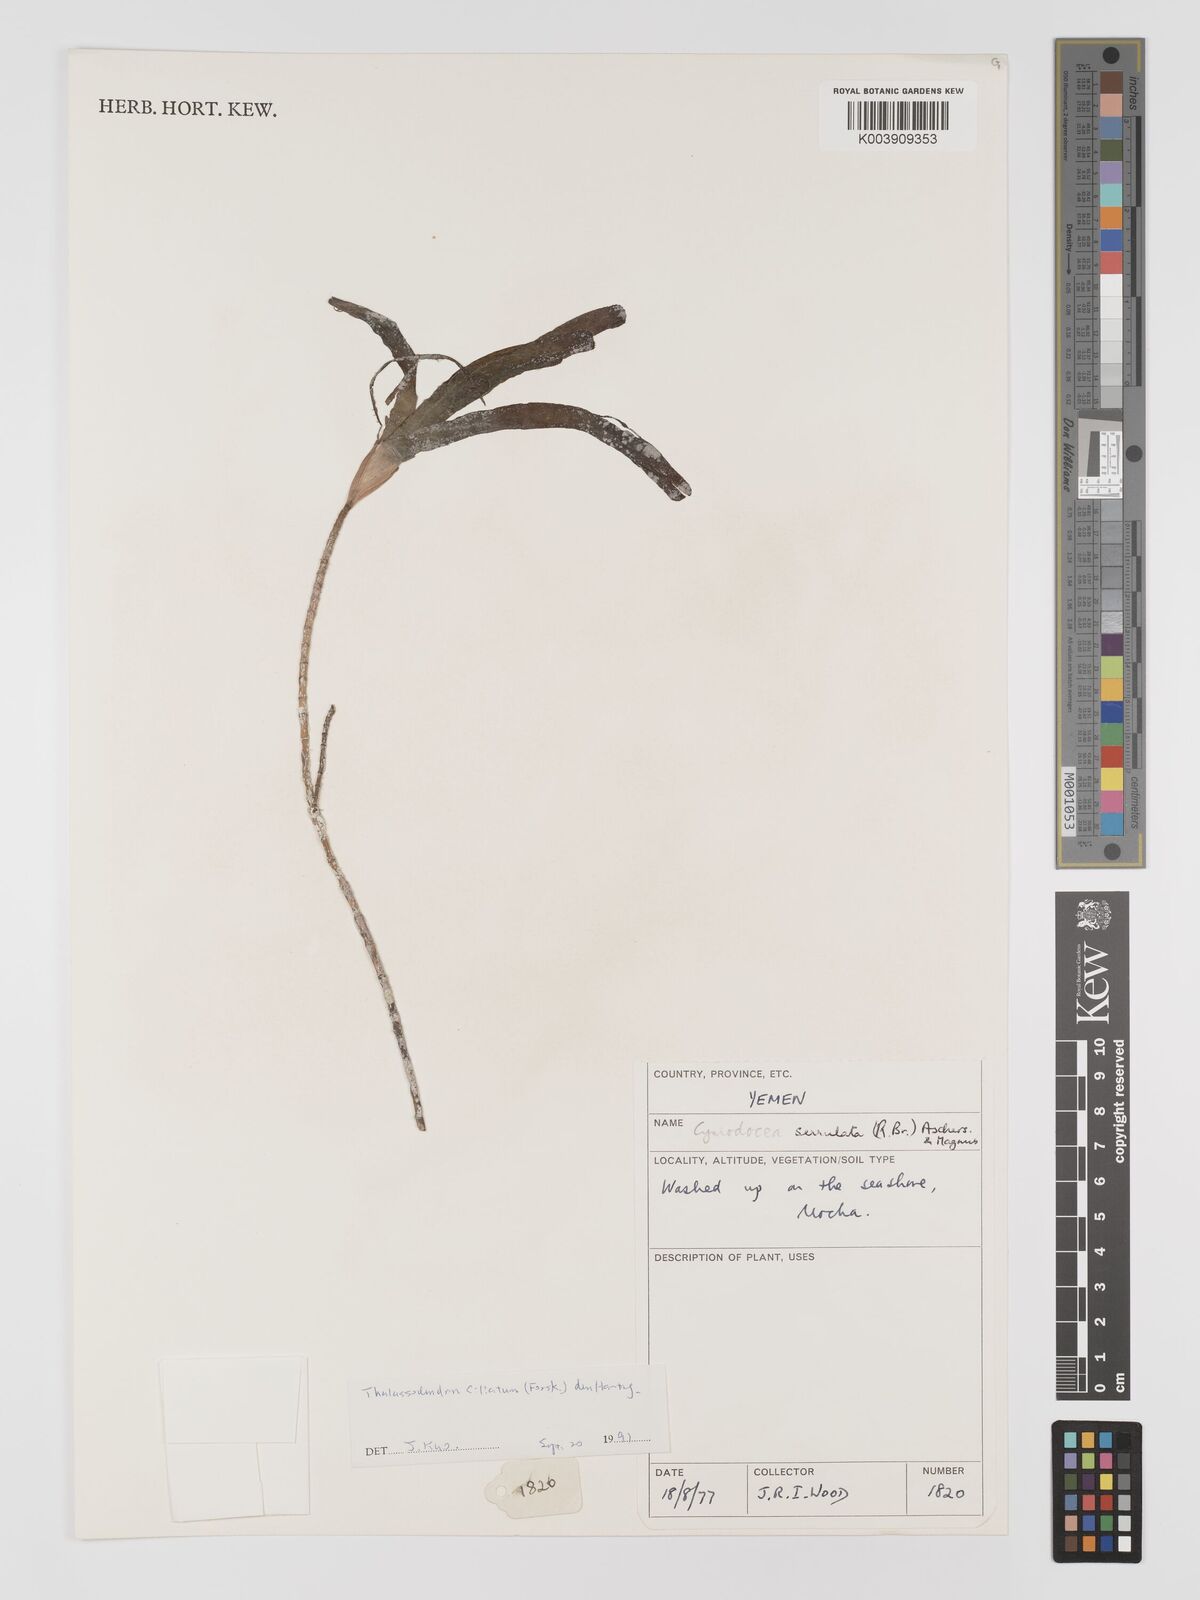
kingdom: Plantae
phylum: Tracheophyta
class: Liliopsida
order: Alismatales
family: Cymodoceaceae
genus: Oceana
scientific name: Oceana serrulata
